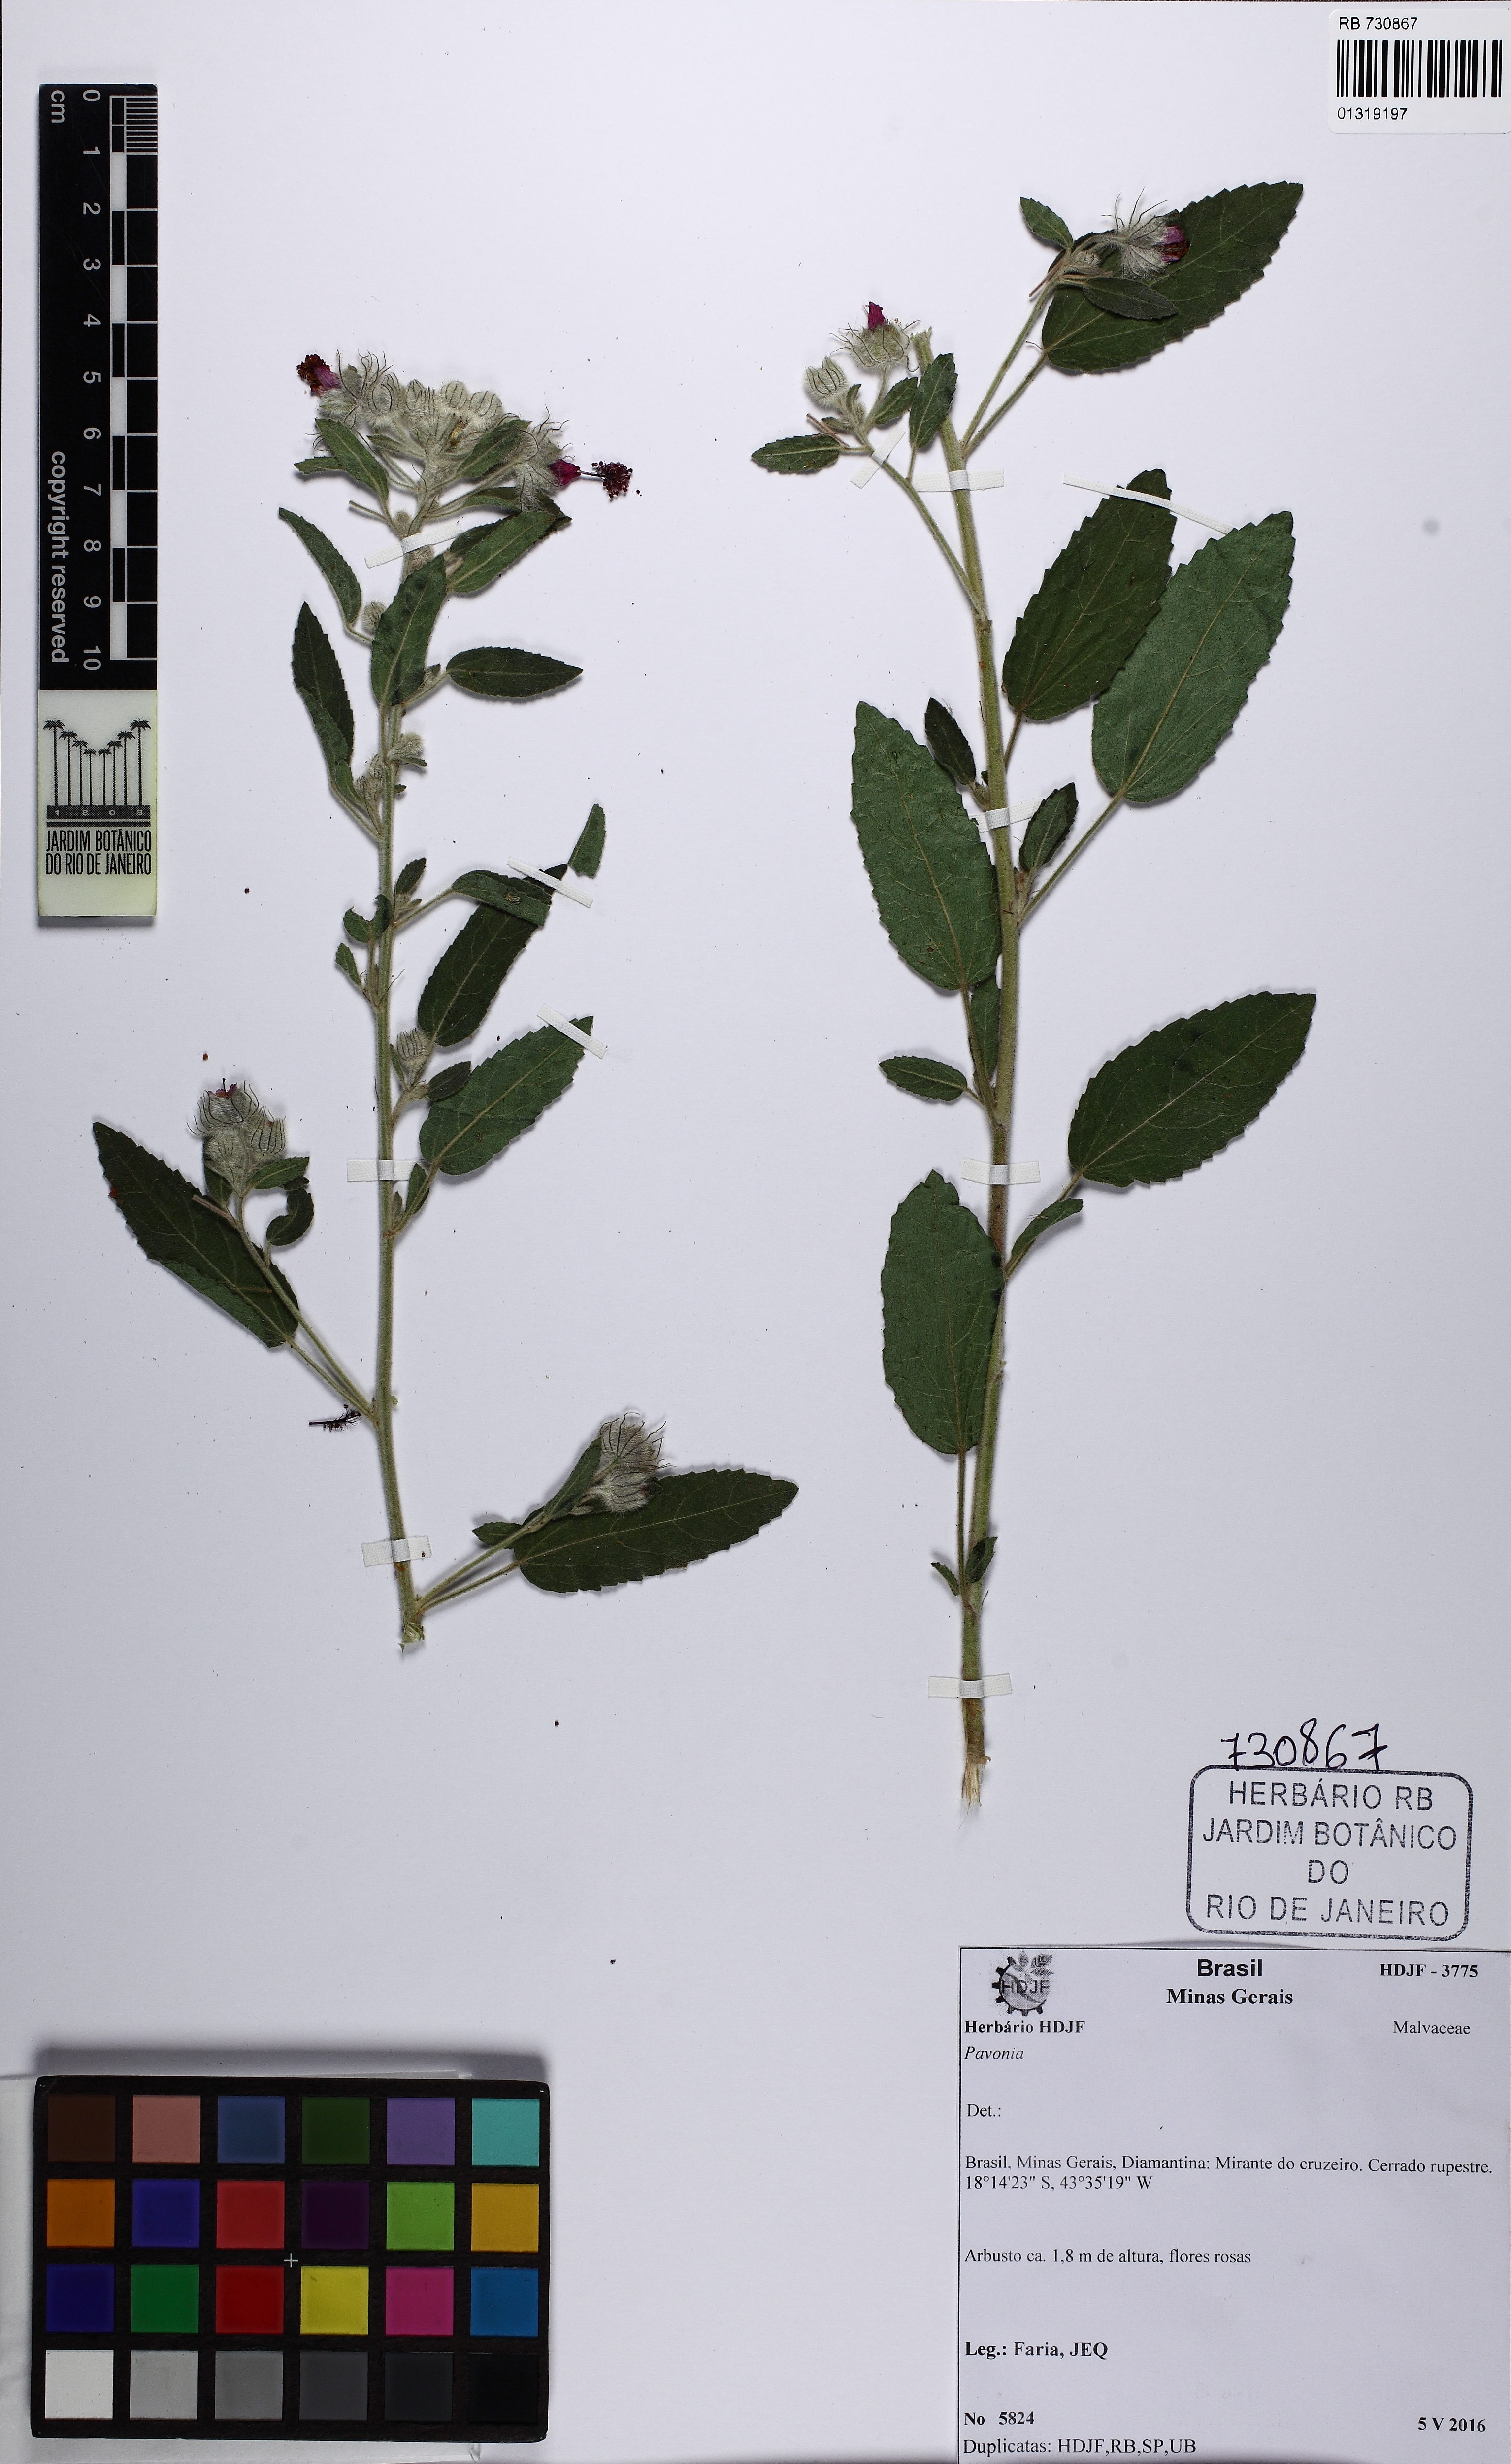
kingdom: Plantae
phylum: Tracheophyta
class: Magnoliopsida
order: Malvales
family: Malvaceae
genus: Pavonia
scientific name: Pavonia
